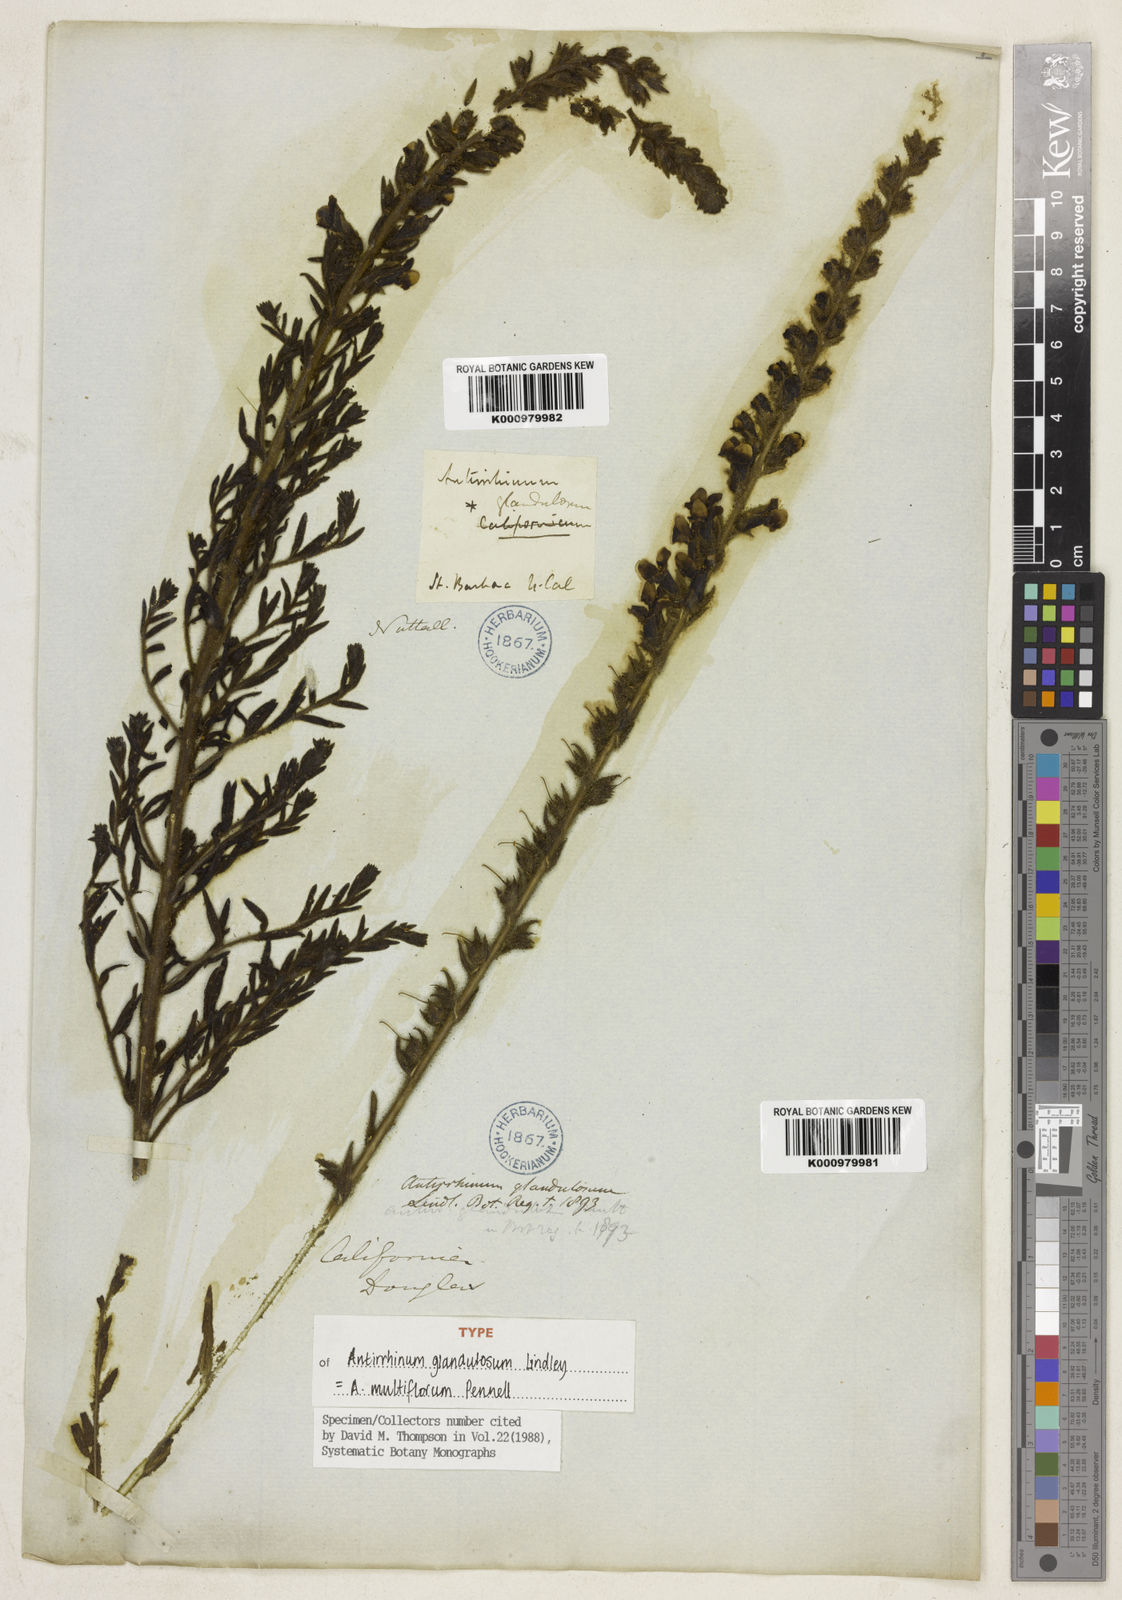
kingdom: Plantae
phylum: Tracheophyta
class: Magnoliopsida
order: Lamiales
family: Plantaginaceae
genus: Sairocarpus
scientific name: Sairocarpus multiflorus
